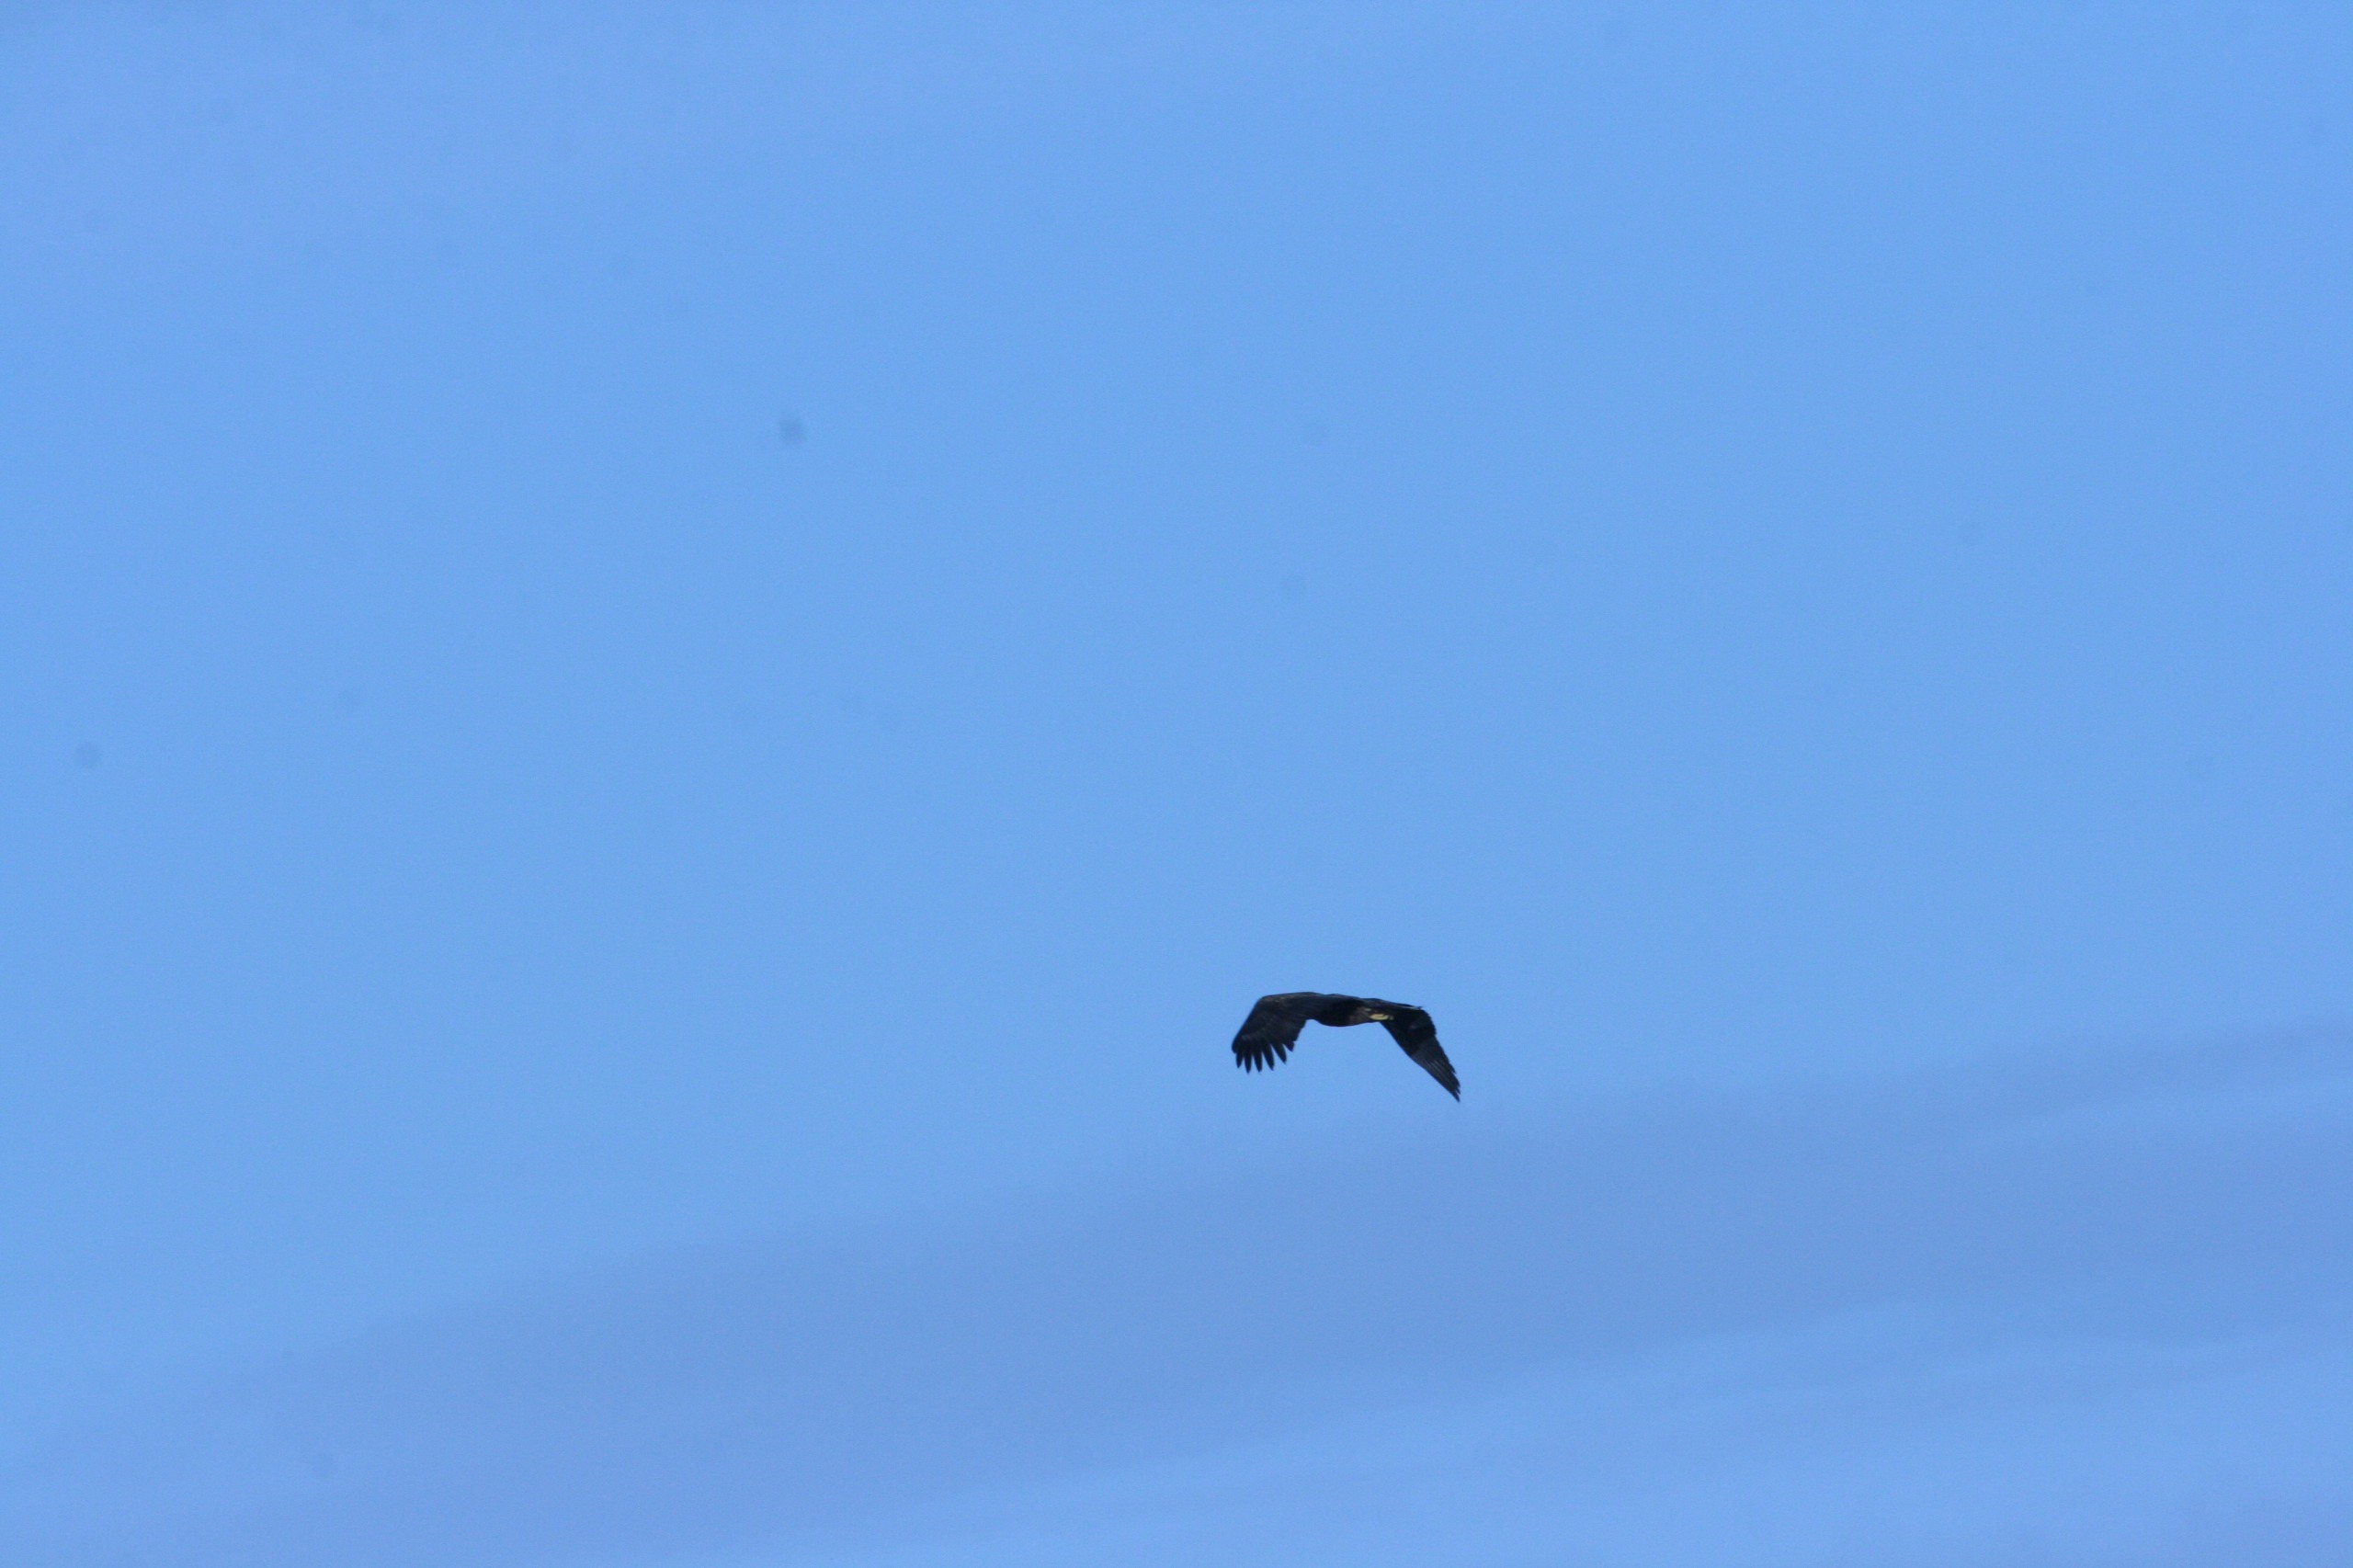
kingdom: Animalia
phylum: Chordata
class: Aves
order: Accipitriformes
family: Accipitridae
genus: Haliaeetus
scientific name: Haliaeetus albicilla
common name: Havørn
